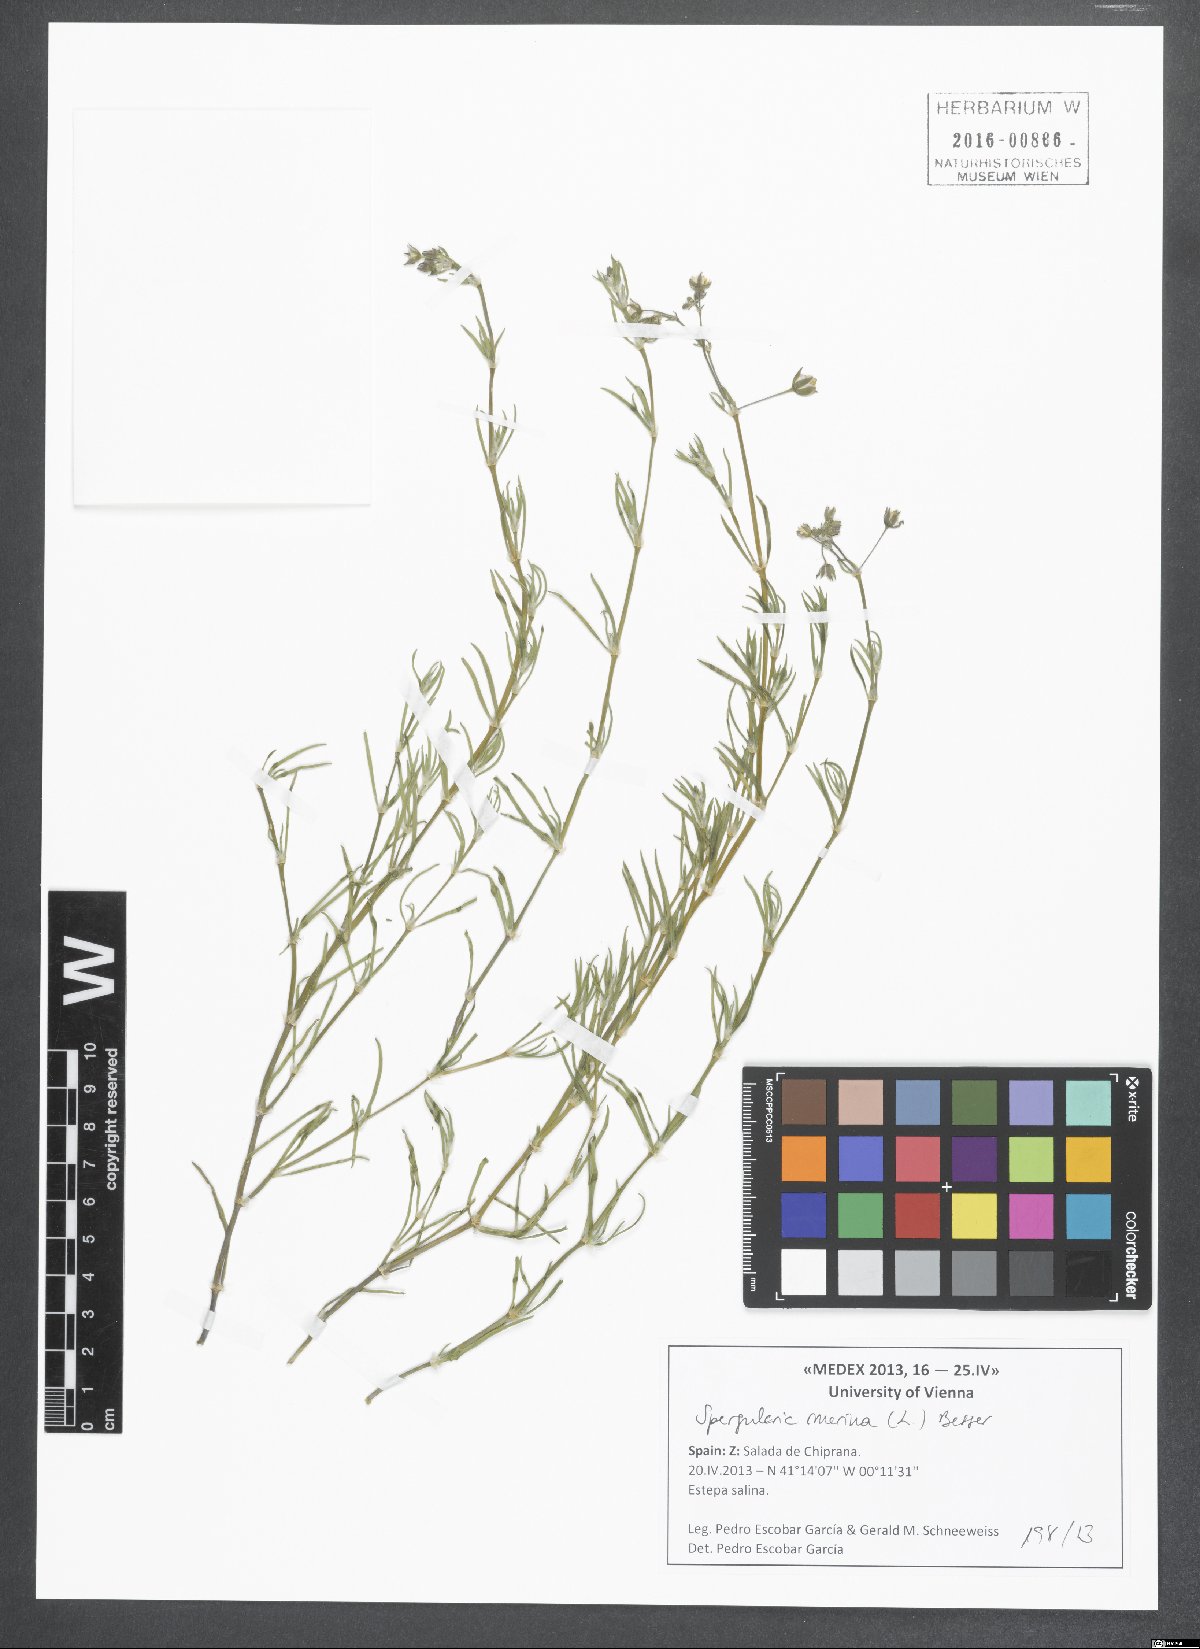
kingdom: Plantae
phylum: Tracheophyta
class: Magnoliopsida
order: Caryophyllales
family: Caryophyllaceae
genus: Spergularia
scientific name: Spergularia marina
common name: Lesser sea-spurrey
